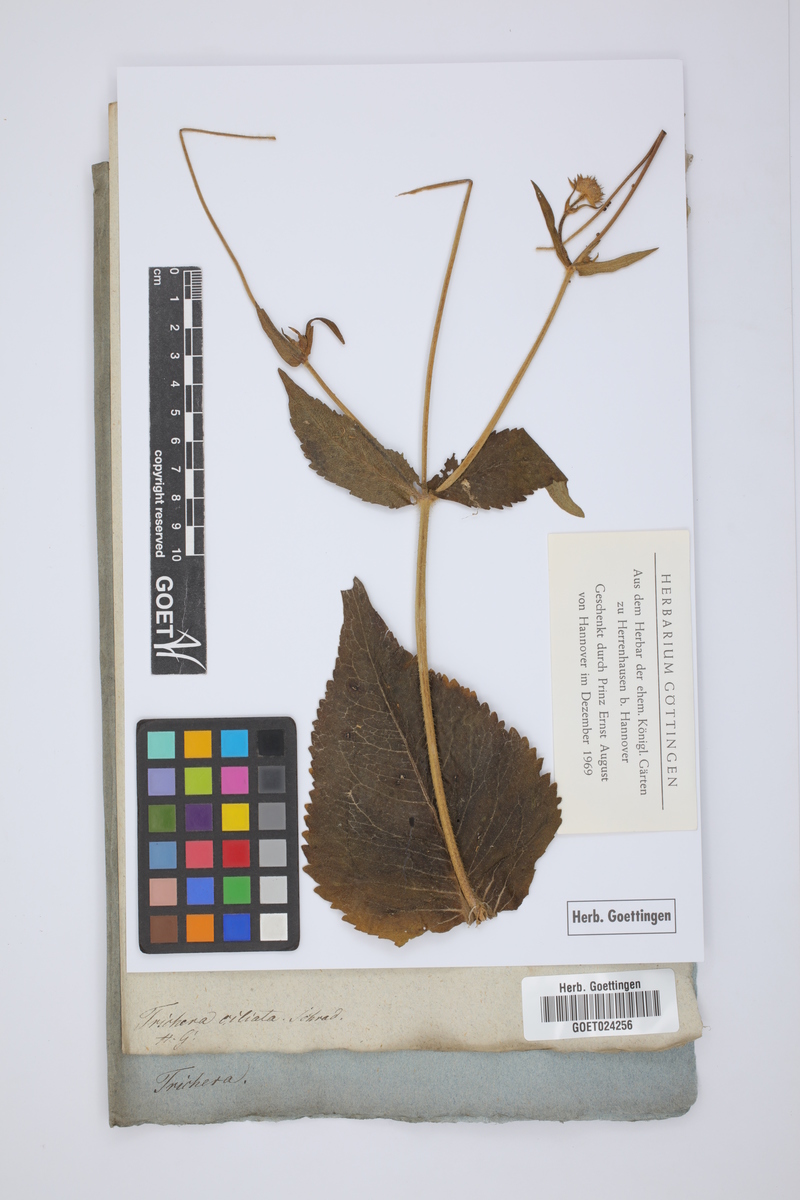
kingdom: Plantae
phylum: Tracheophyta
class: Magnoliopsida
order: Dipsacales
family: Caprifoliaceae
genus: Knautia
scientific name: Knautia kitaibelii
